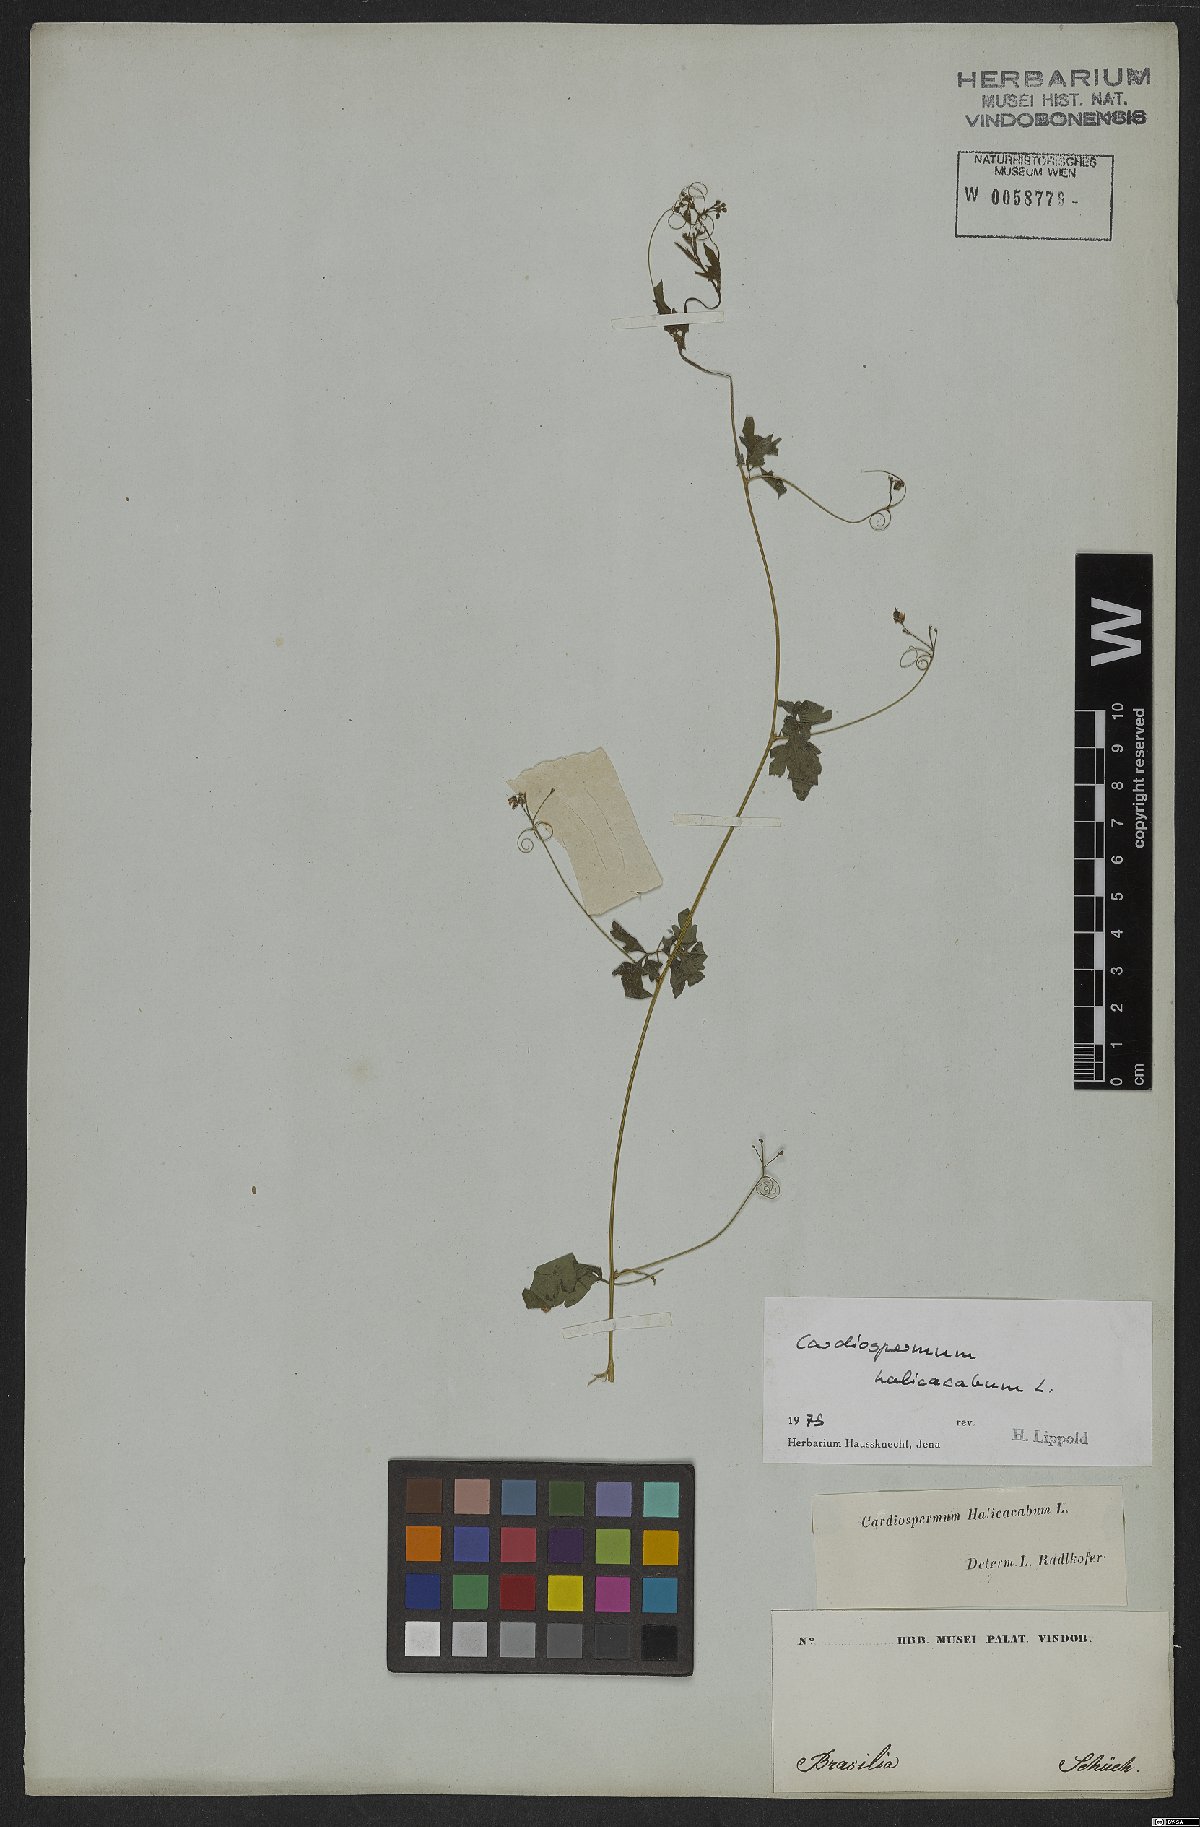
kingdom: Plantae
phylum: Tracheophyta
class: Magnoliopsida
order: Sapindales
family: Sapindaceae
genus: Cardiospermum
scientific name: Cardiospermum halicacabum
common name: Balloon vine
